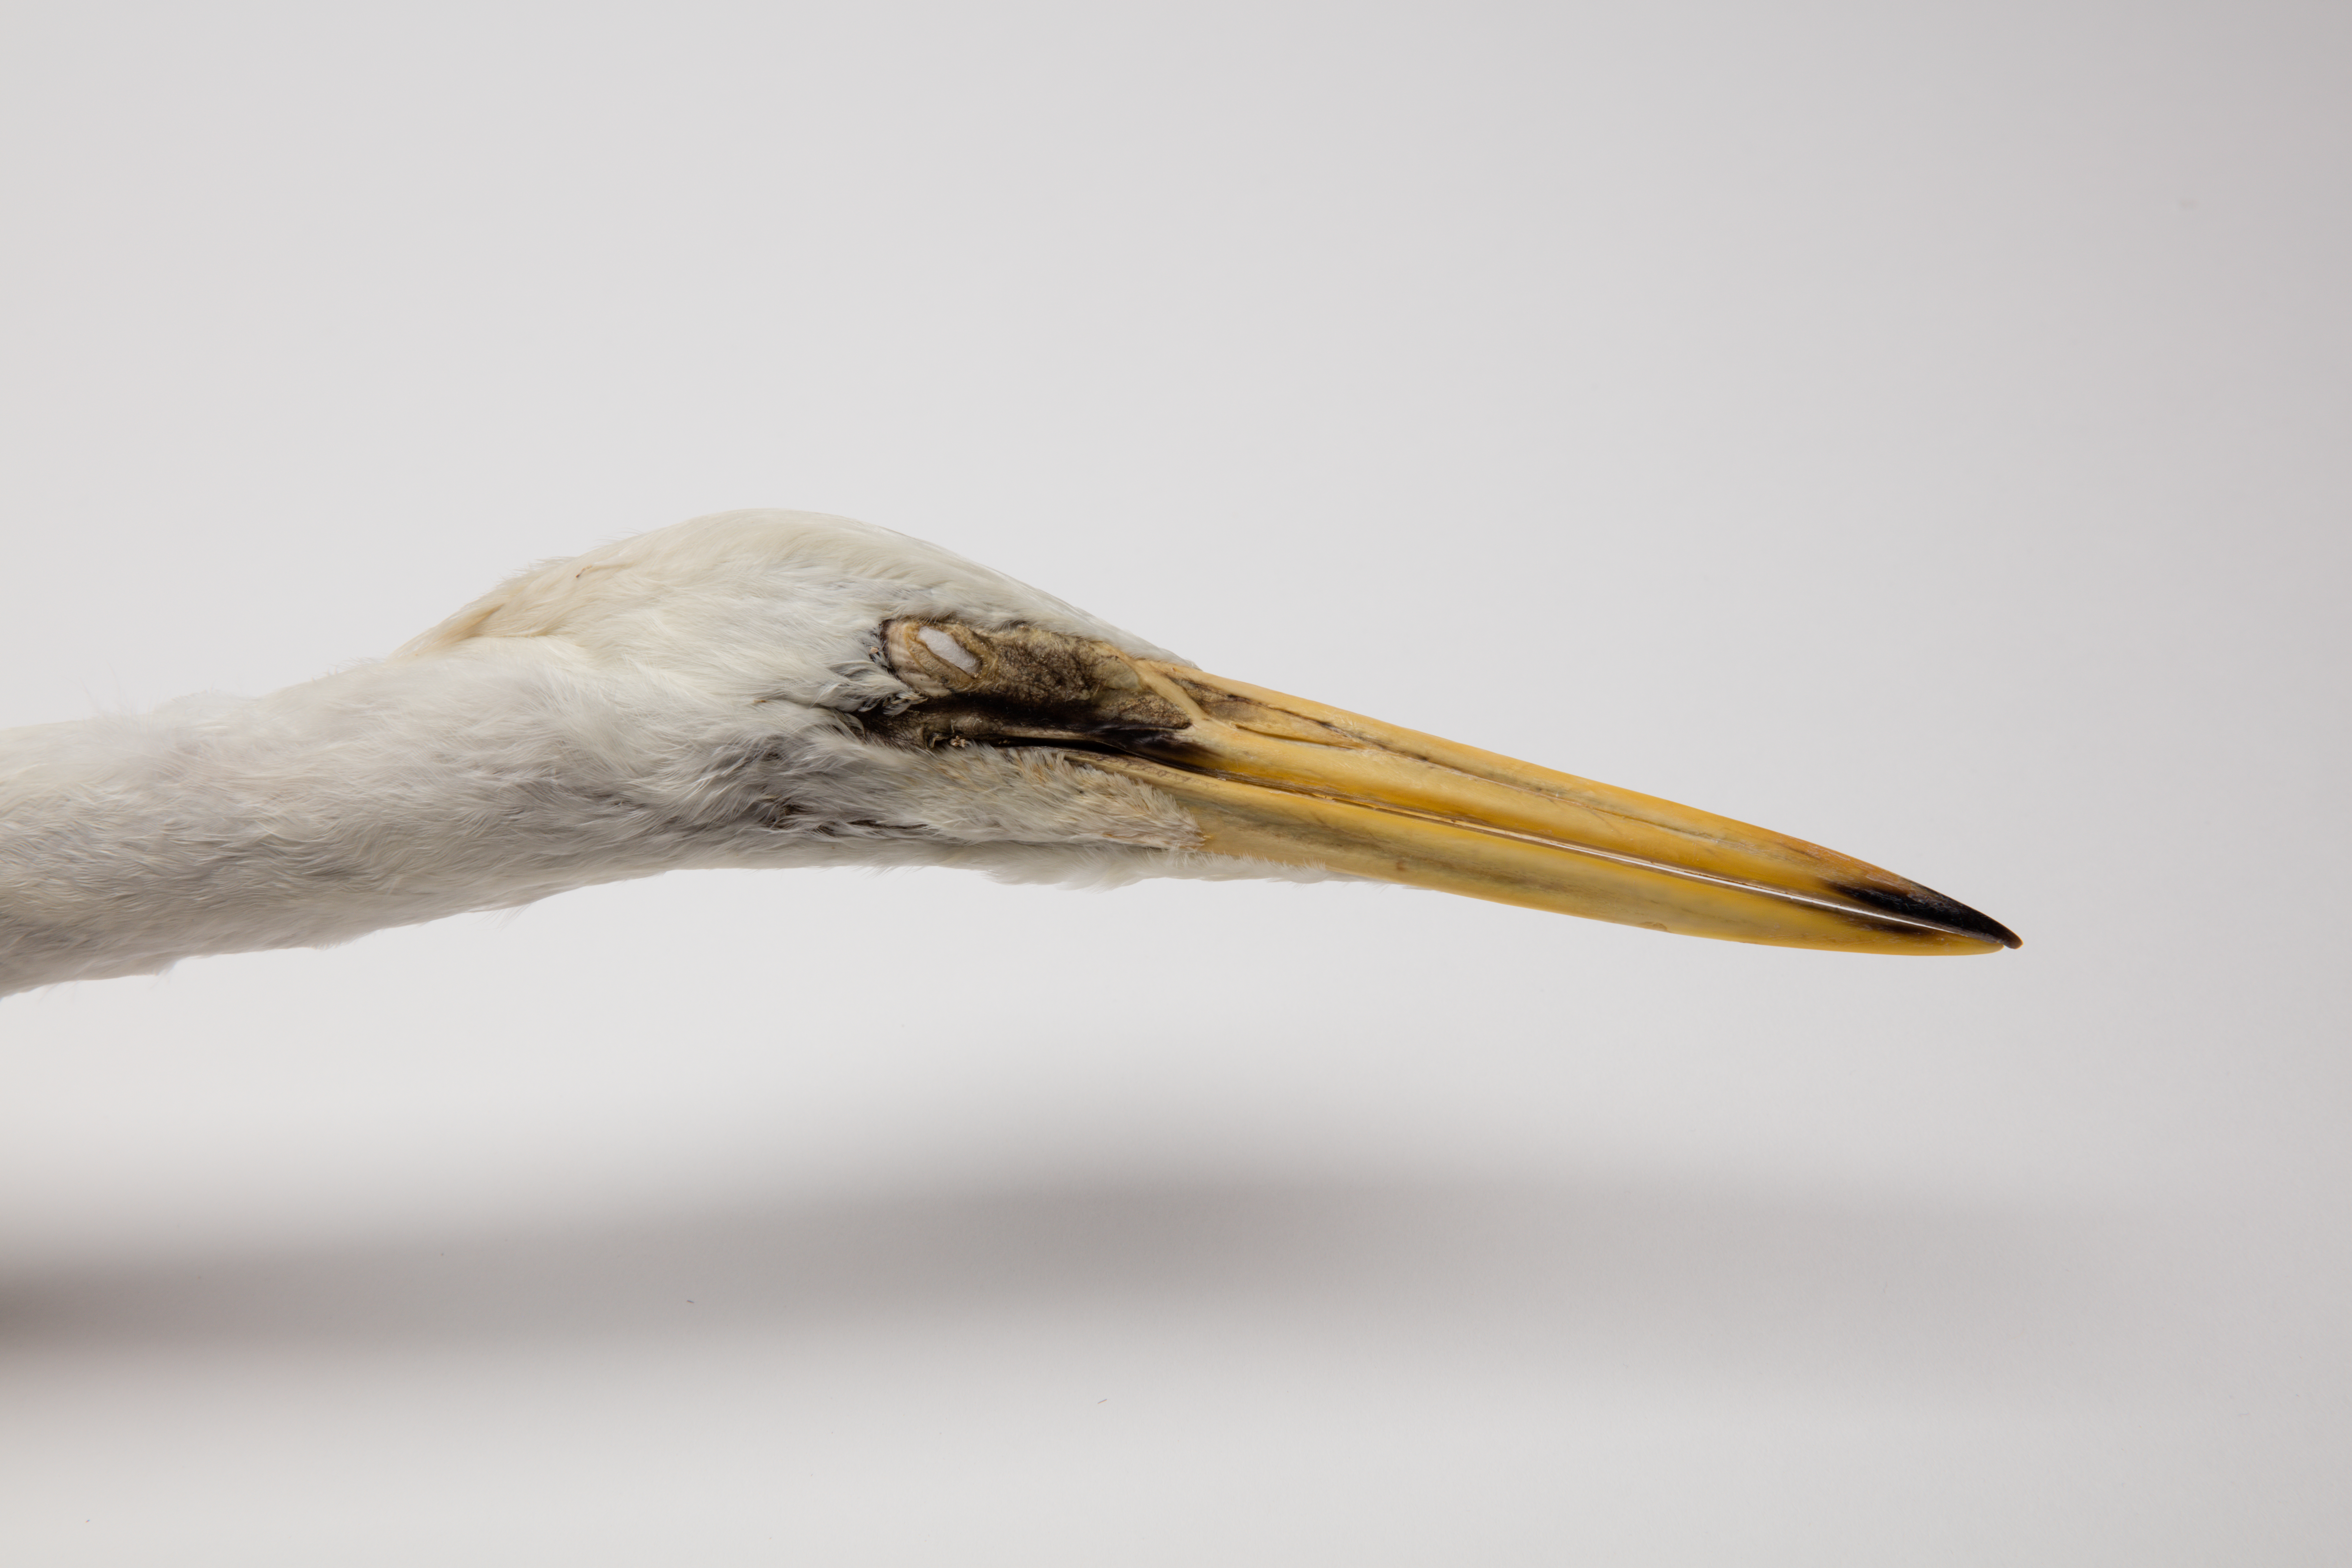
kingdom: Animalia
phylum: Chordata
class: Aves
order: Pelecaniformes
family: Ardeidae
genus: Ardea
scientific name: Ardea modesta
